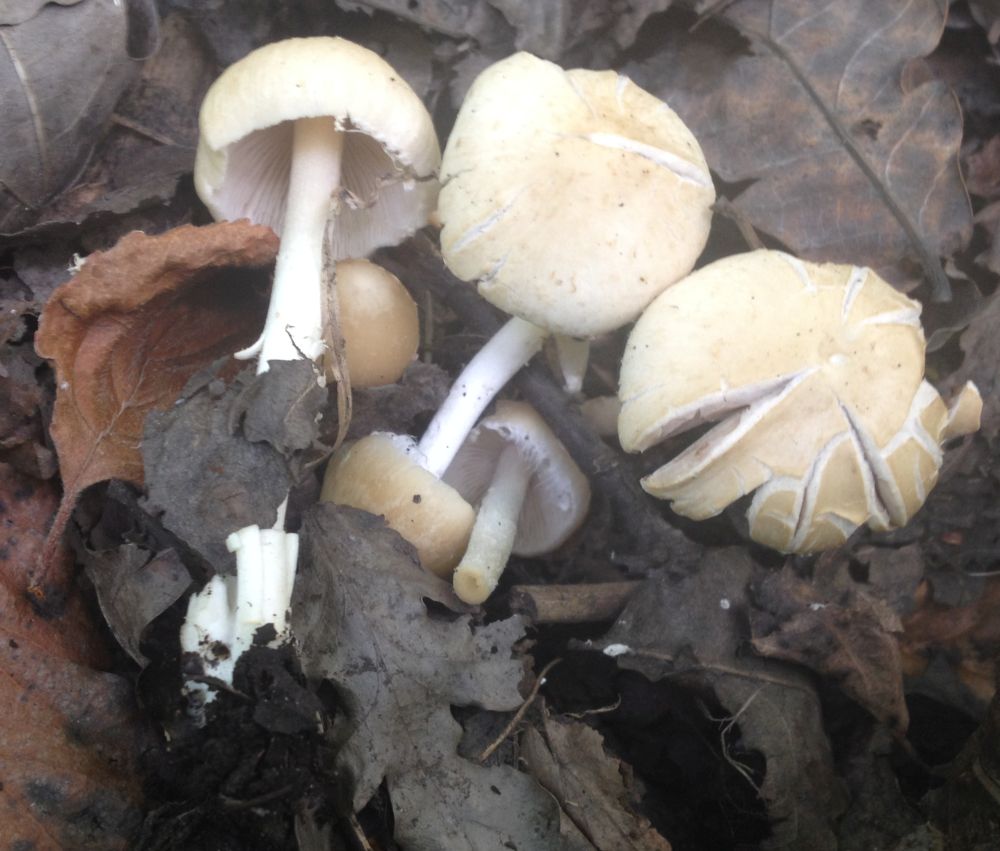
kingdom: Fungi
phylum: Basidiomycota
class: Agaricomycetes
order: Agaricales
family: Psathyrellaceae
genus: Candolleomyces
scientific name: Candolleomyces candolleanus
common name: Candolles mørkhat
